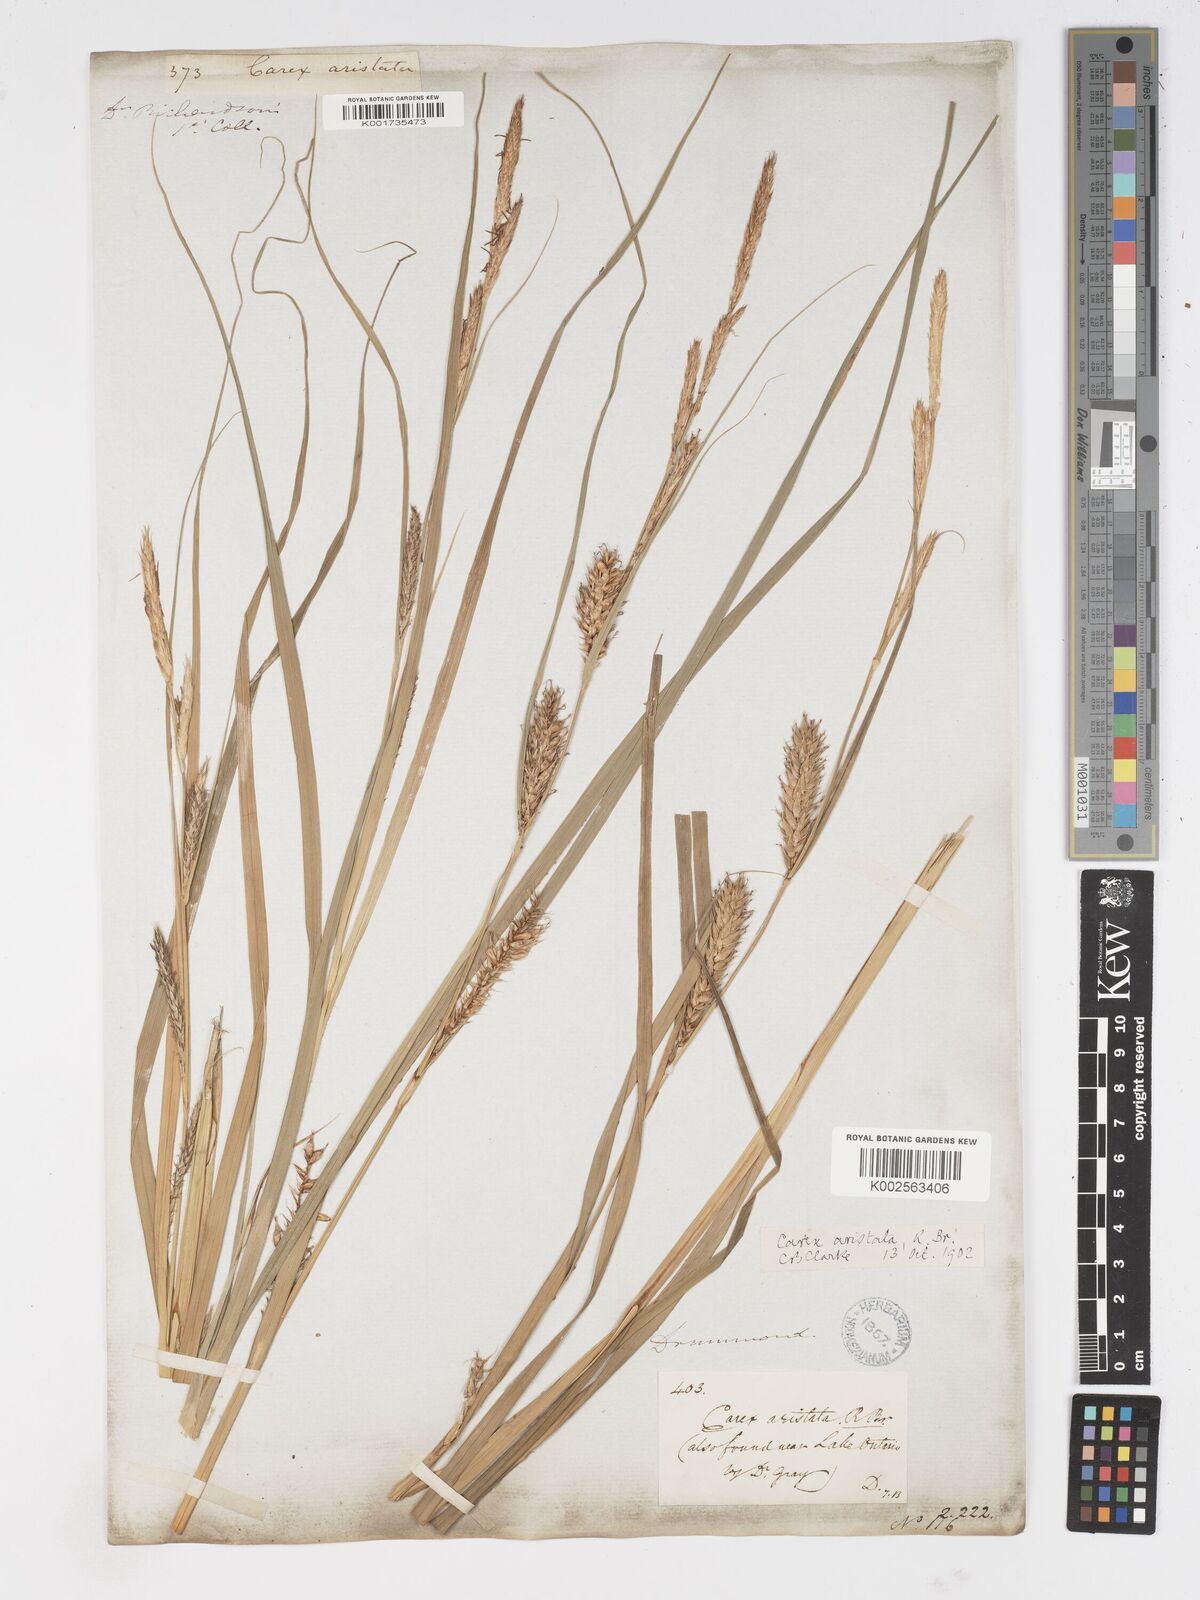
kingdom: Plantae
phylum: Tracheophyta
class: Liliopsida
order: Poales
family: Cyperaceae
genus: Carex
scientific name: Carex atherodes
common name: Wheat sedge
